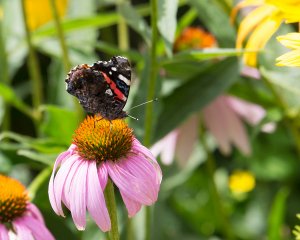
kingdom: Animalia
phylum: Arthropoda
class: Insecta
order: Lepidoptera
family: Nymphalidae
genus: Vanessa
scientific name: Vanessa atalanta
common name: Red Admiral
